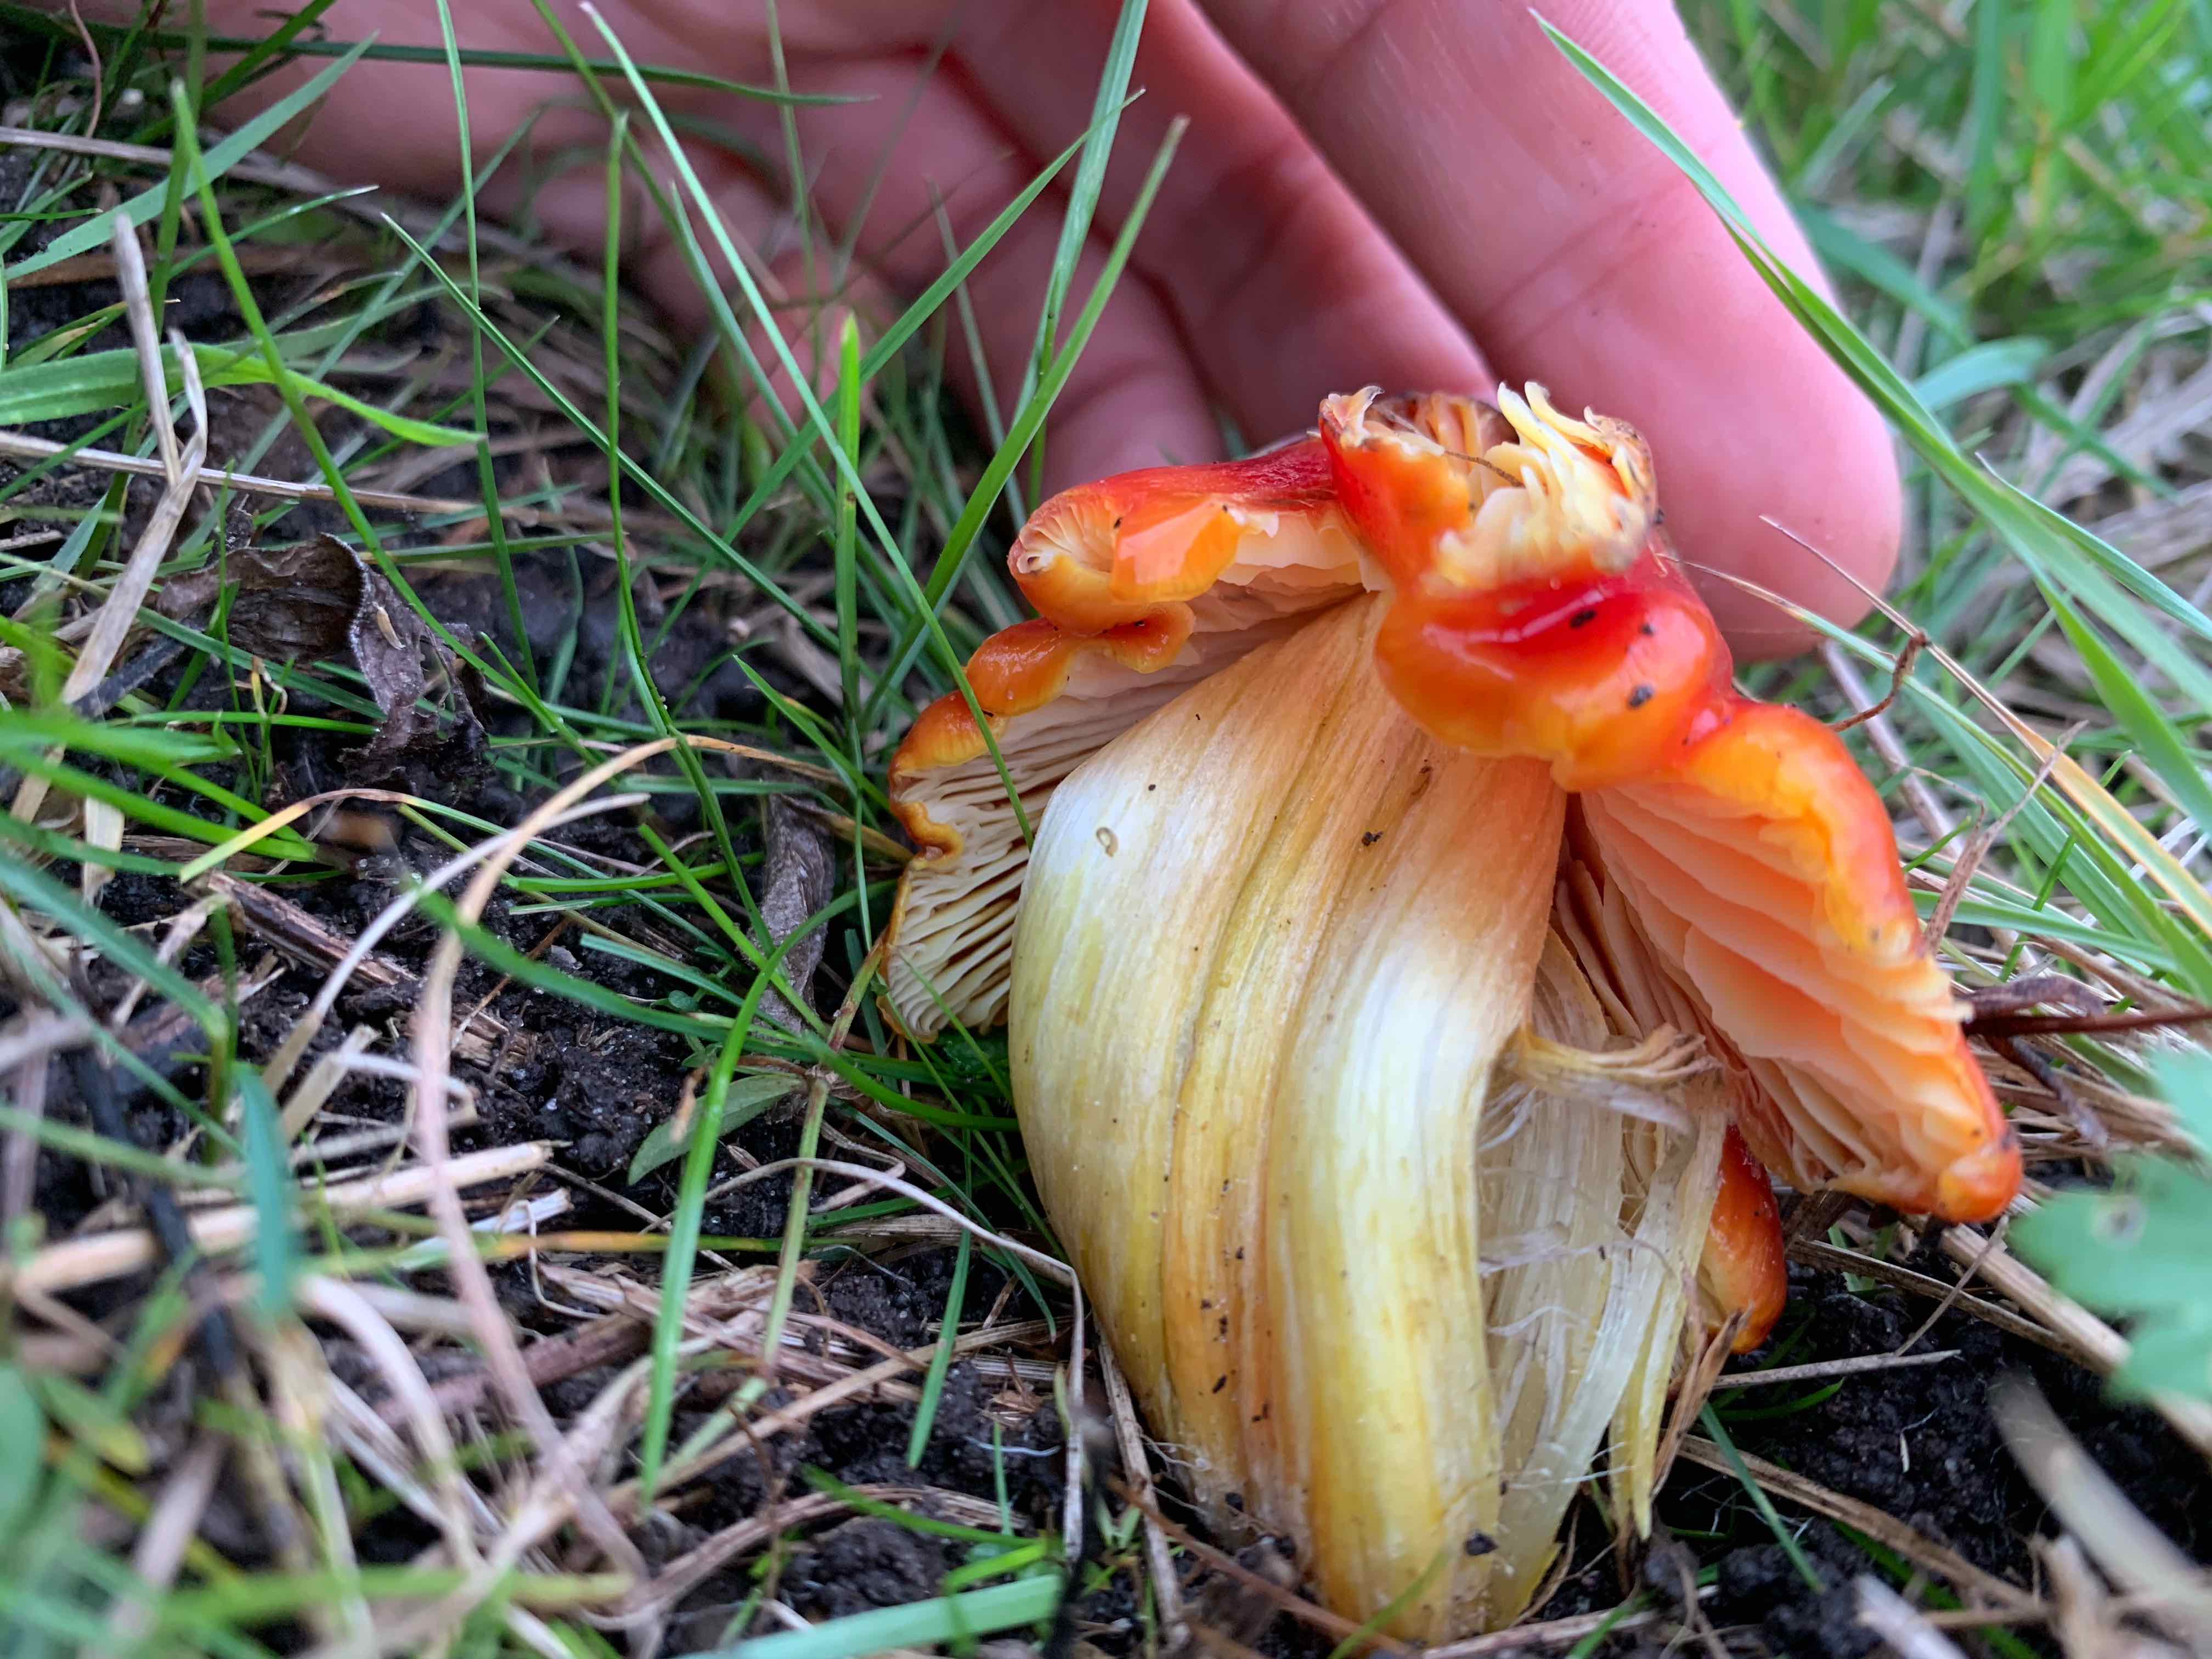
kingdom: Fungi
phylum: Basidiomycota
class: Agaricomycetes
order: Agaricales
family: Hygrophoraceae
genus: Hygrocybe
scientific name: Hygrocybe conica
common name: kegle-vokshat
